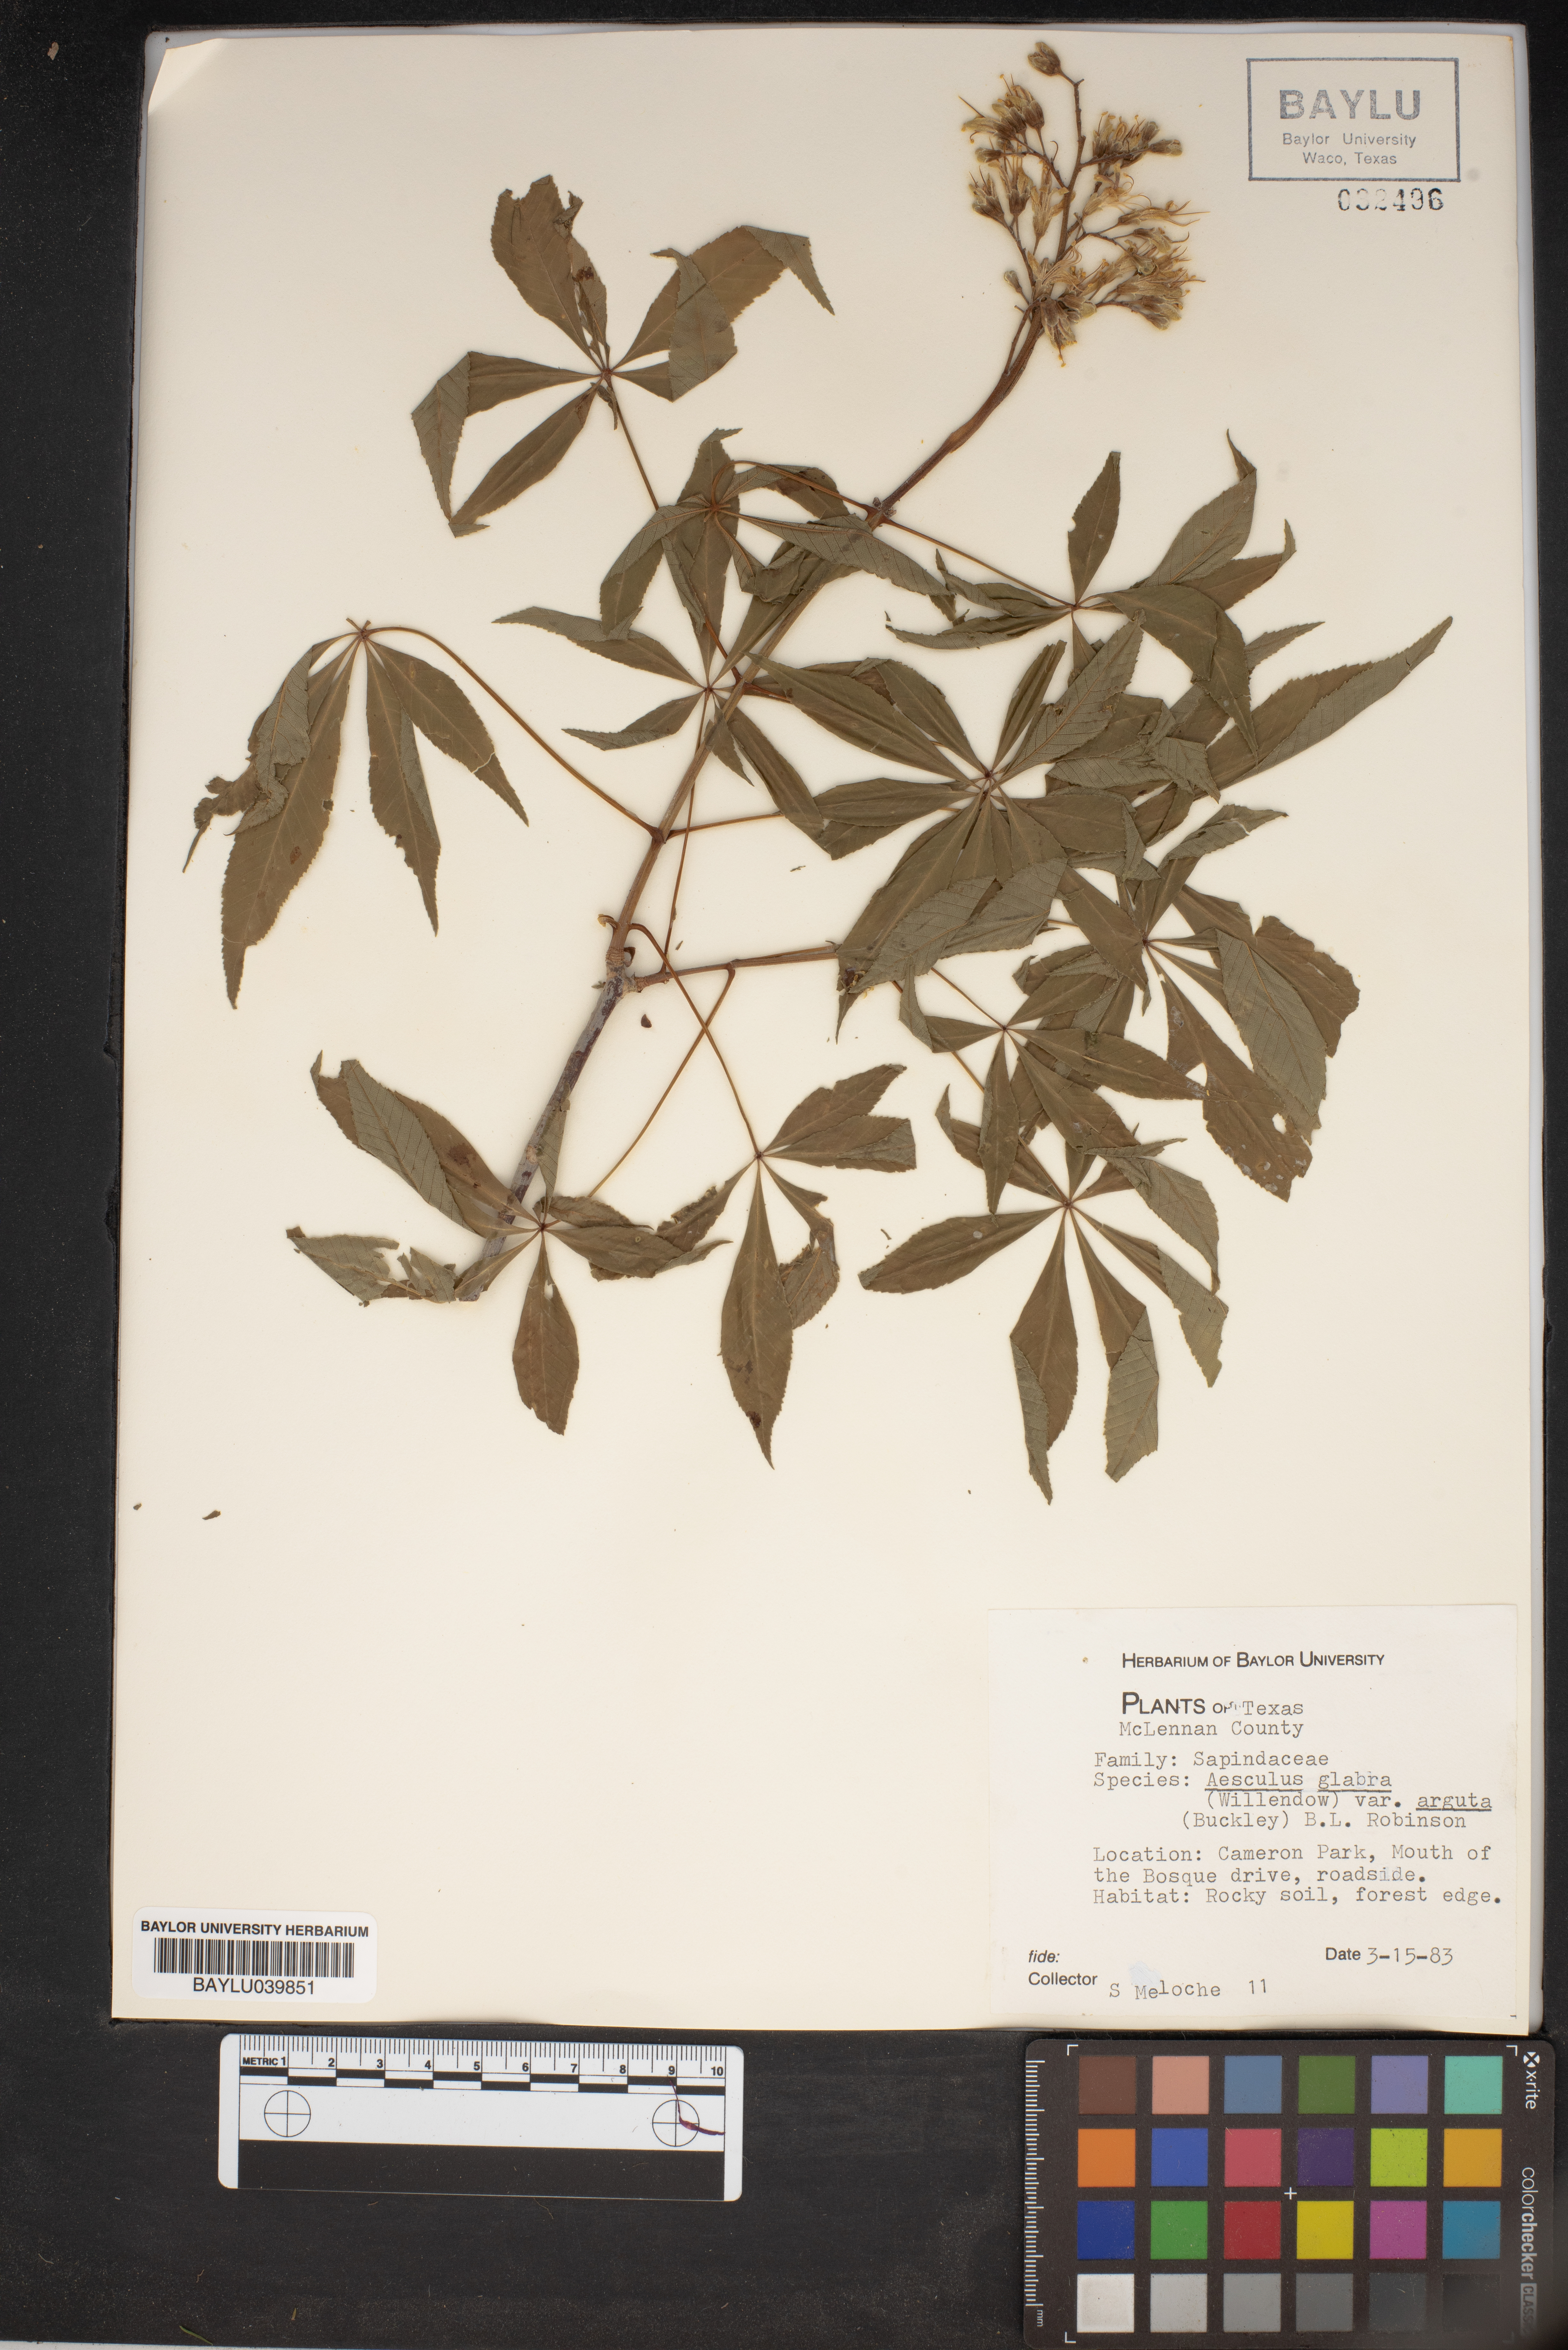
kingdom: Plantae
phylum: Tracheophyta
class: Magnoliopsida
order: Sapindales
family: Sapindaceae
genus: Aesculus
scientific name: Aesculus glabra
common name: Ohio buckeye
